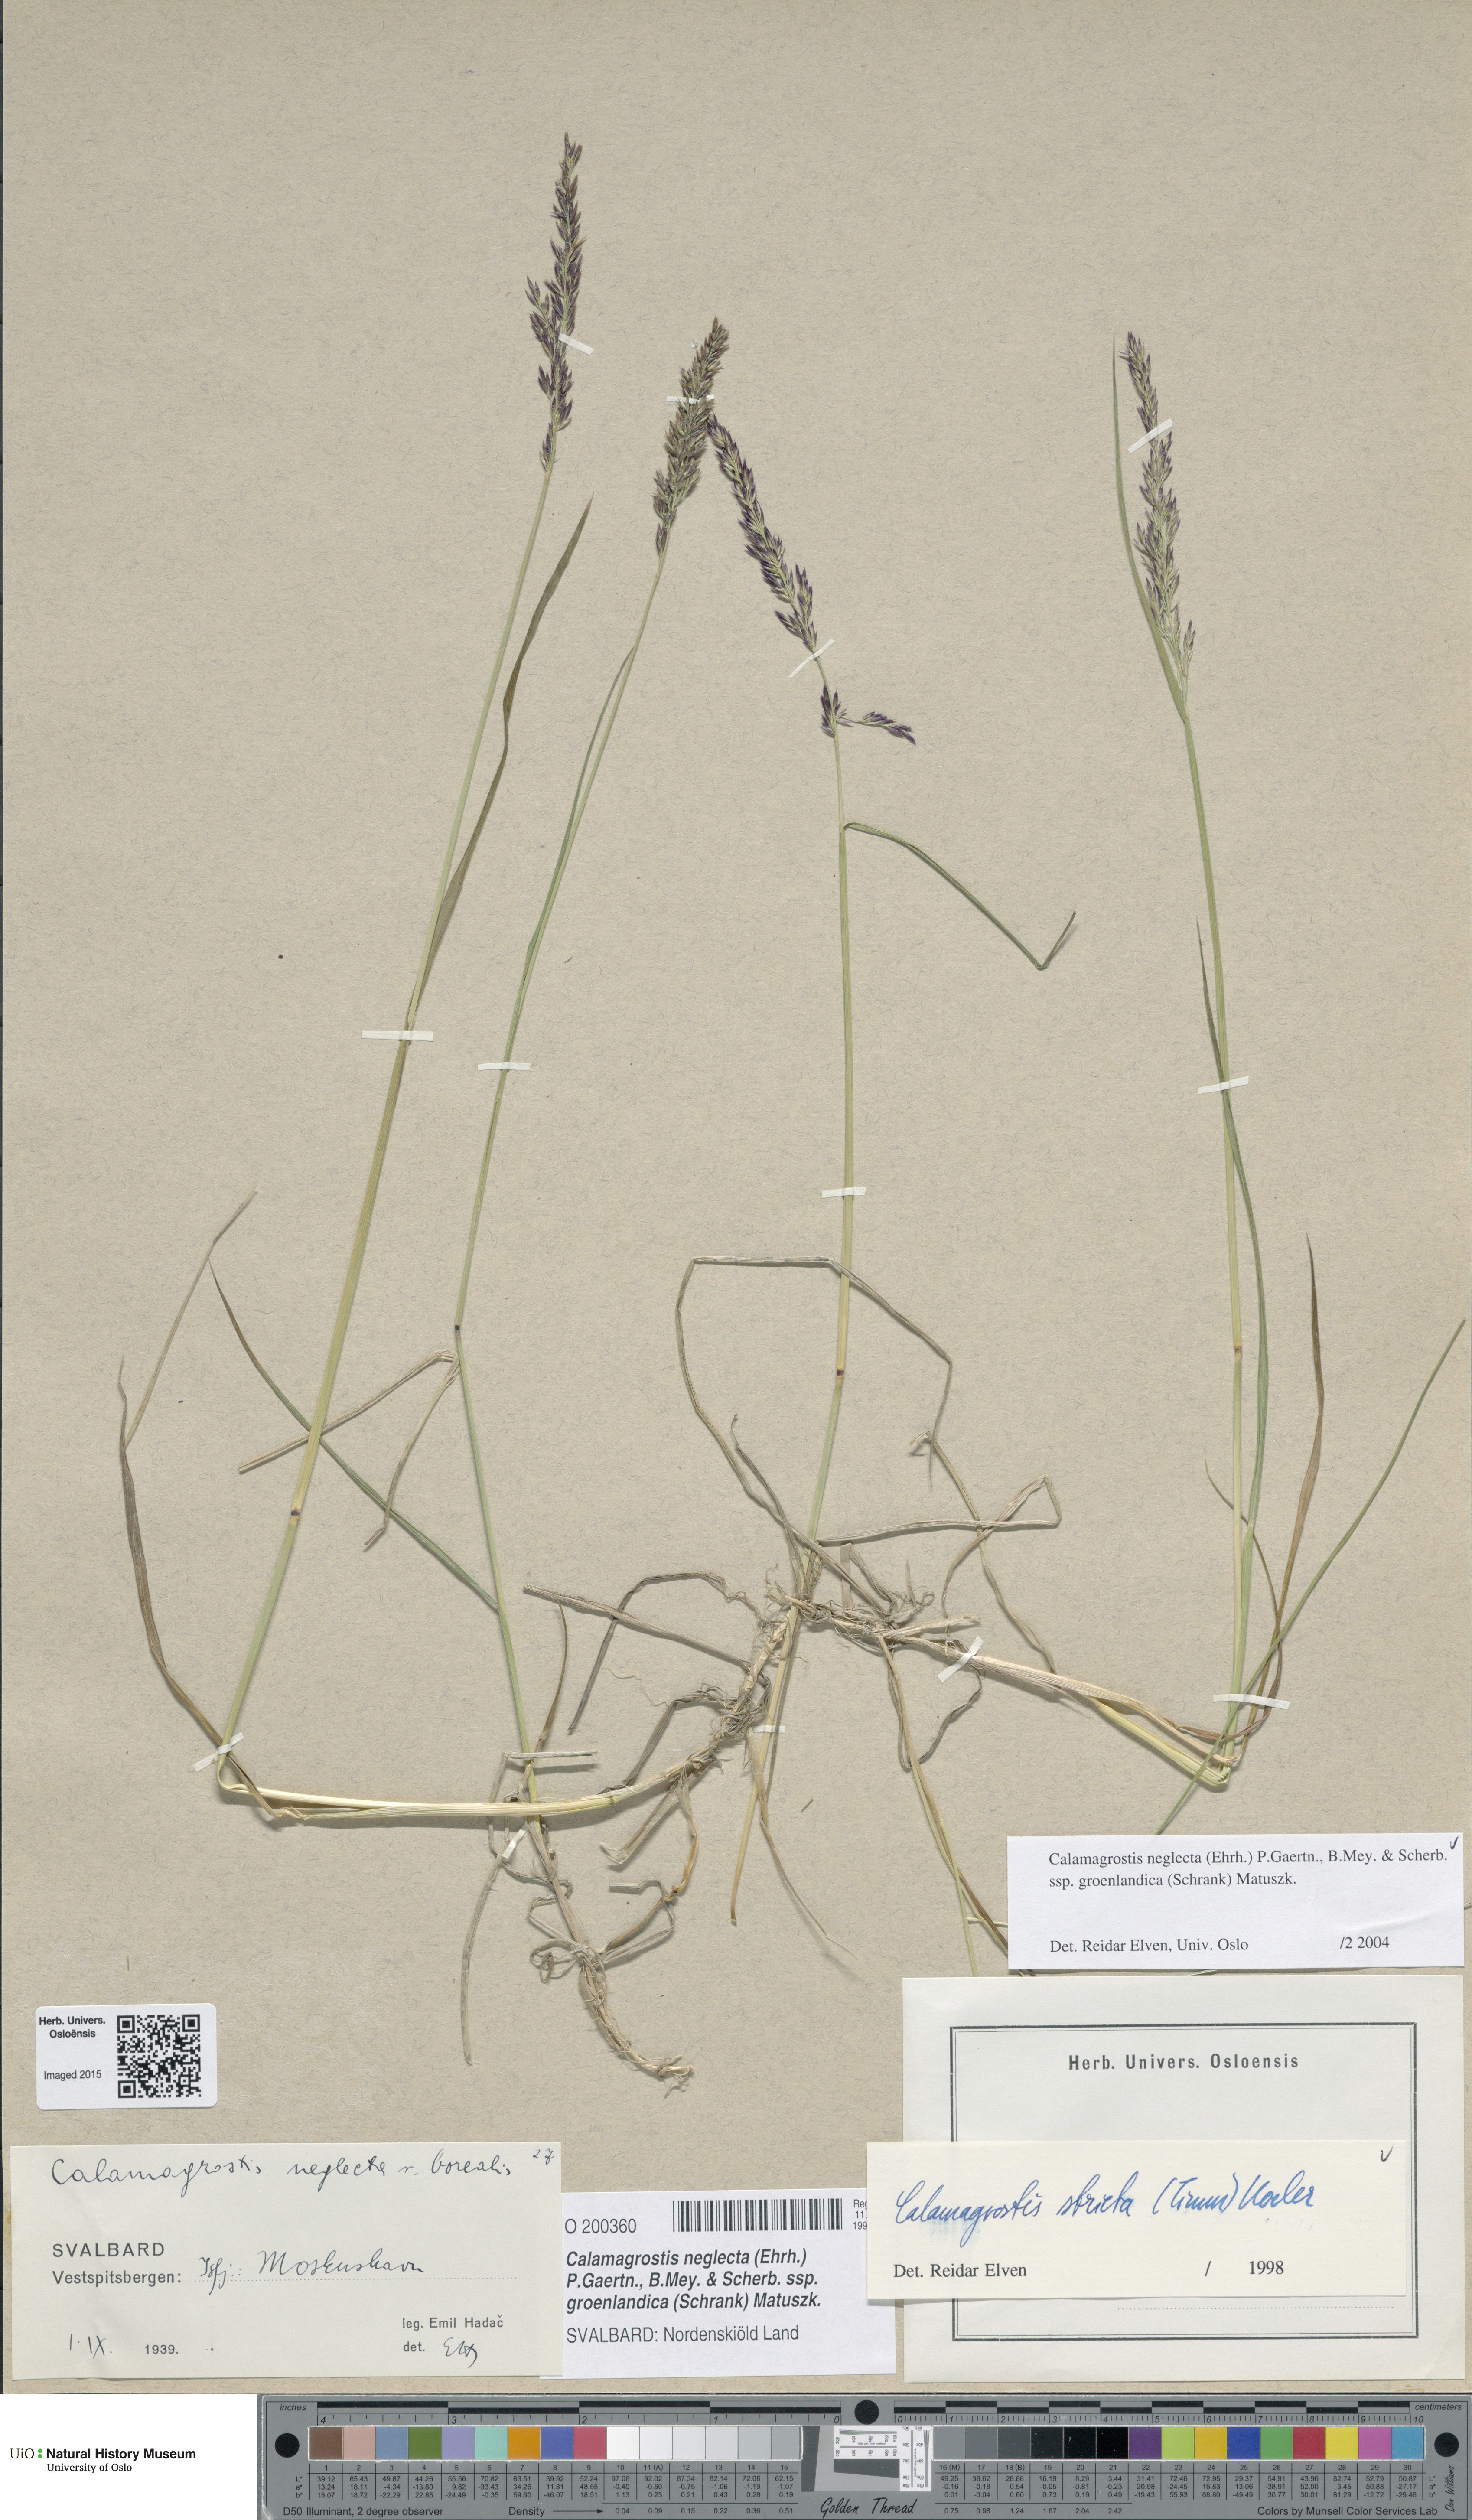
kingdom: Plantae
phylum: Tracheophyta
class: Liliopsida
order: Poales
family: Poaceae
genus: Calamagrostis
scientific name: Calamagrostis stricta
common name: Narrow small-reed
